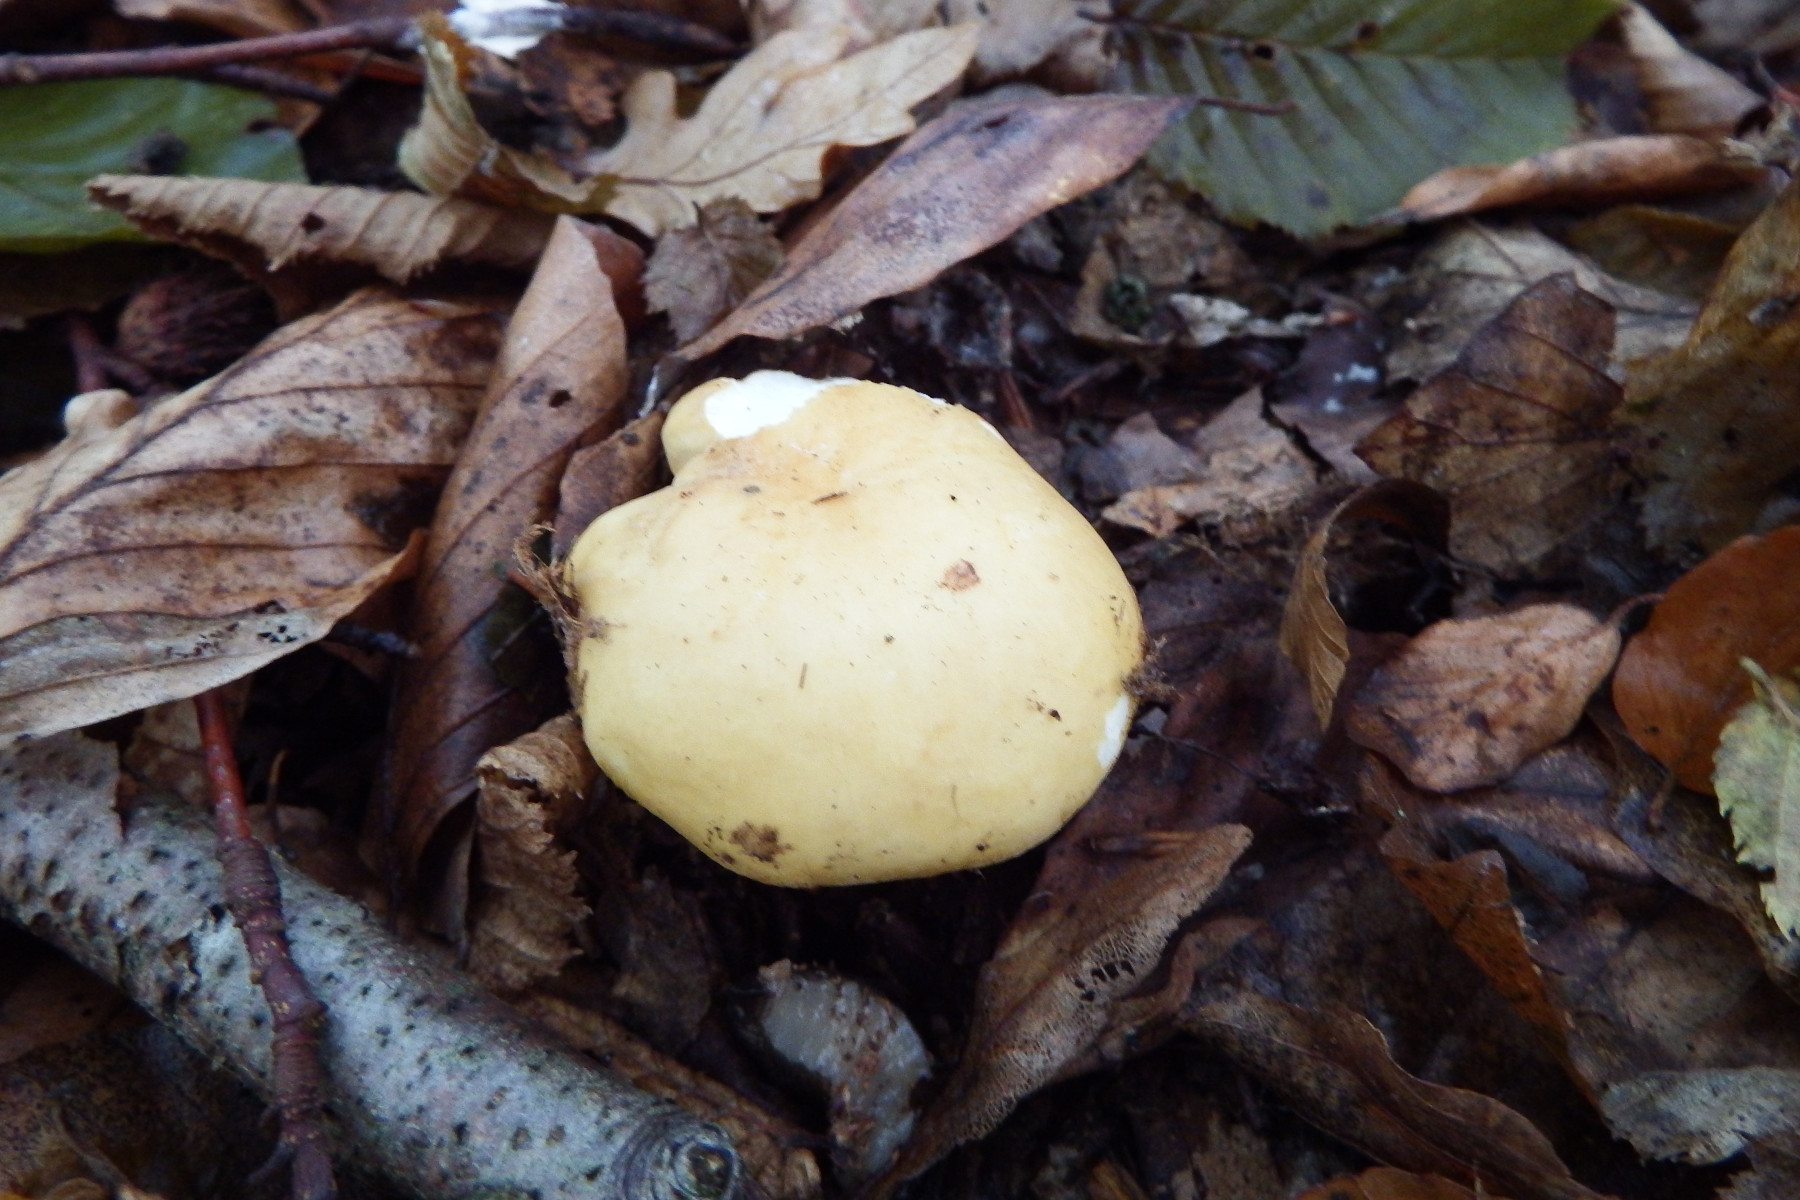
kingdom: Fungi
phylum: Basidiomycota
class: Agaricomycetes
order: Russulales
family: Russulaceae
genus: Russula
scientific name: Russula ochroleuca
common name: okkergul skørhat
